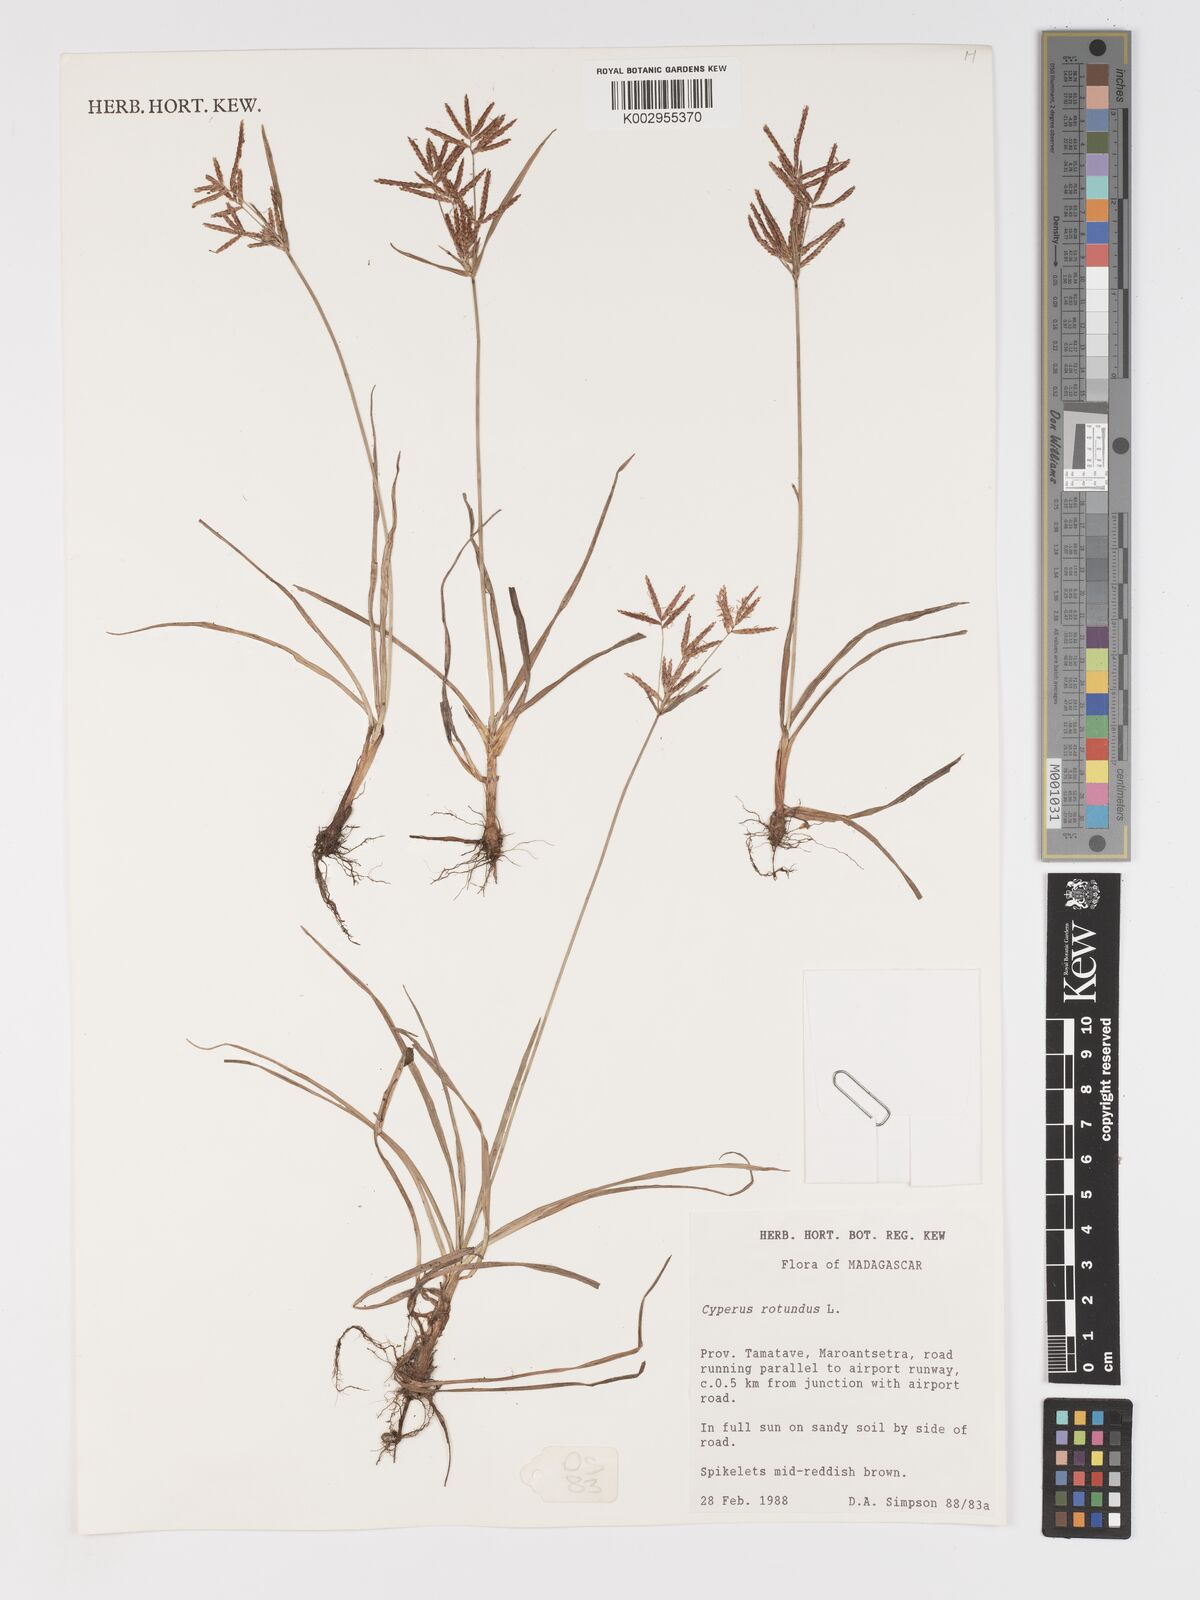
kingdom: Plantae
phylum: Tracheophyta
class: Liliopsida
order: Poales
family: Cyperaceae
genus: Cyperus
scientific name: Cyperus rotundus
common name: Nutgrass
